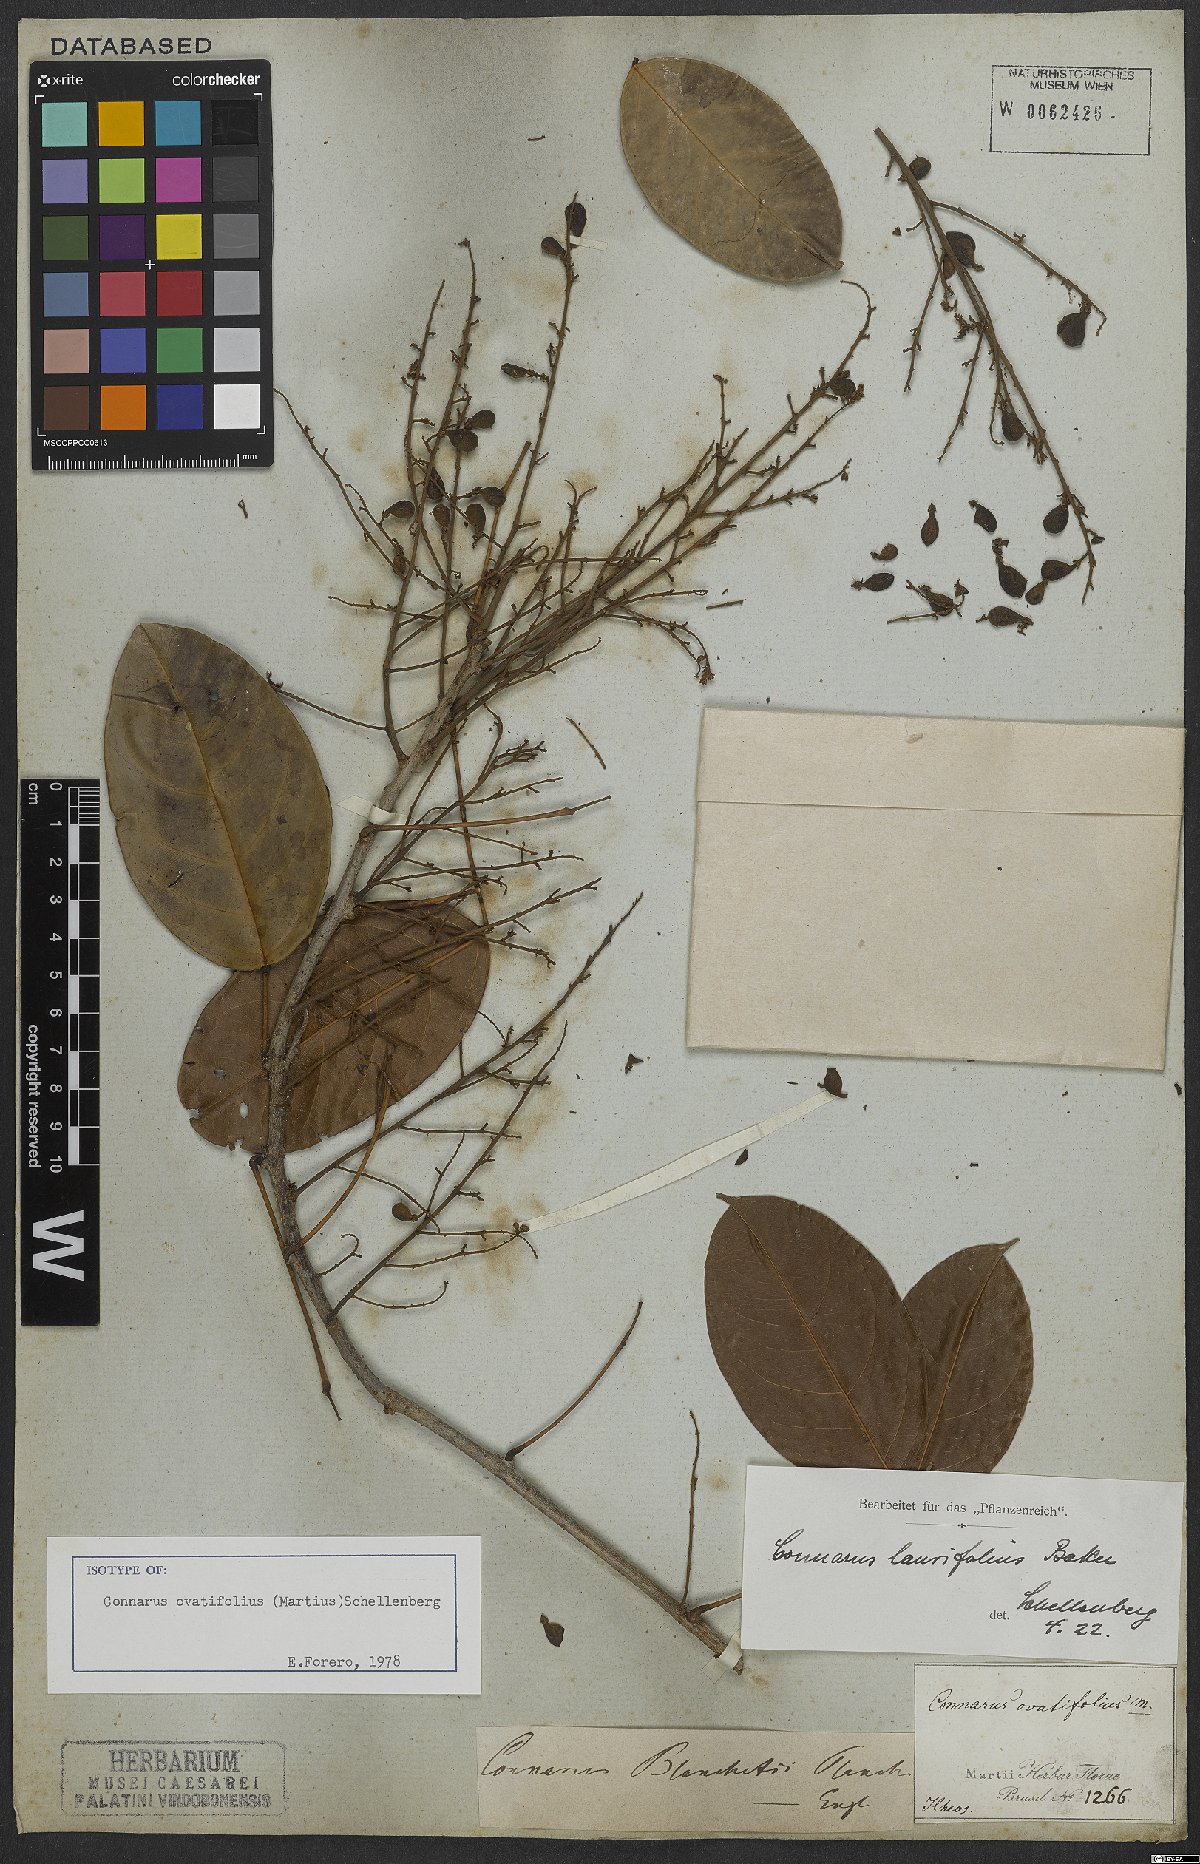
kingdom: Plantae
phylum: Tracheophyta
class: Magnoliopsida
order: Oxalidales
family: Connaraceae
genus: Connarus
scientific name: Connarus ovatifolius
